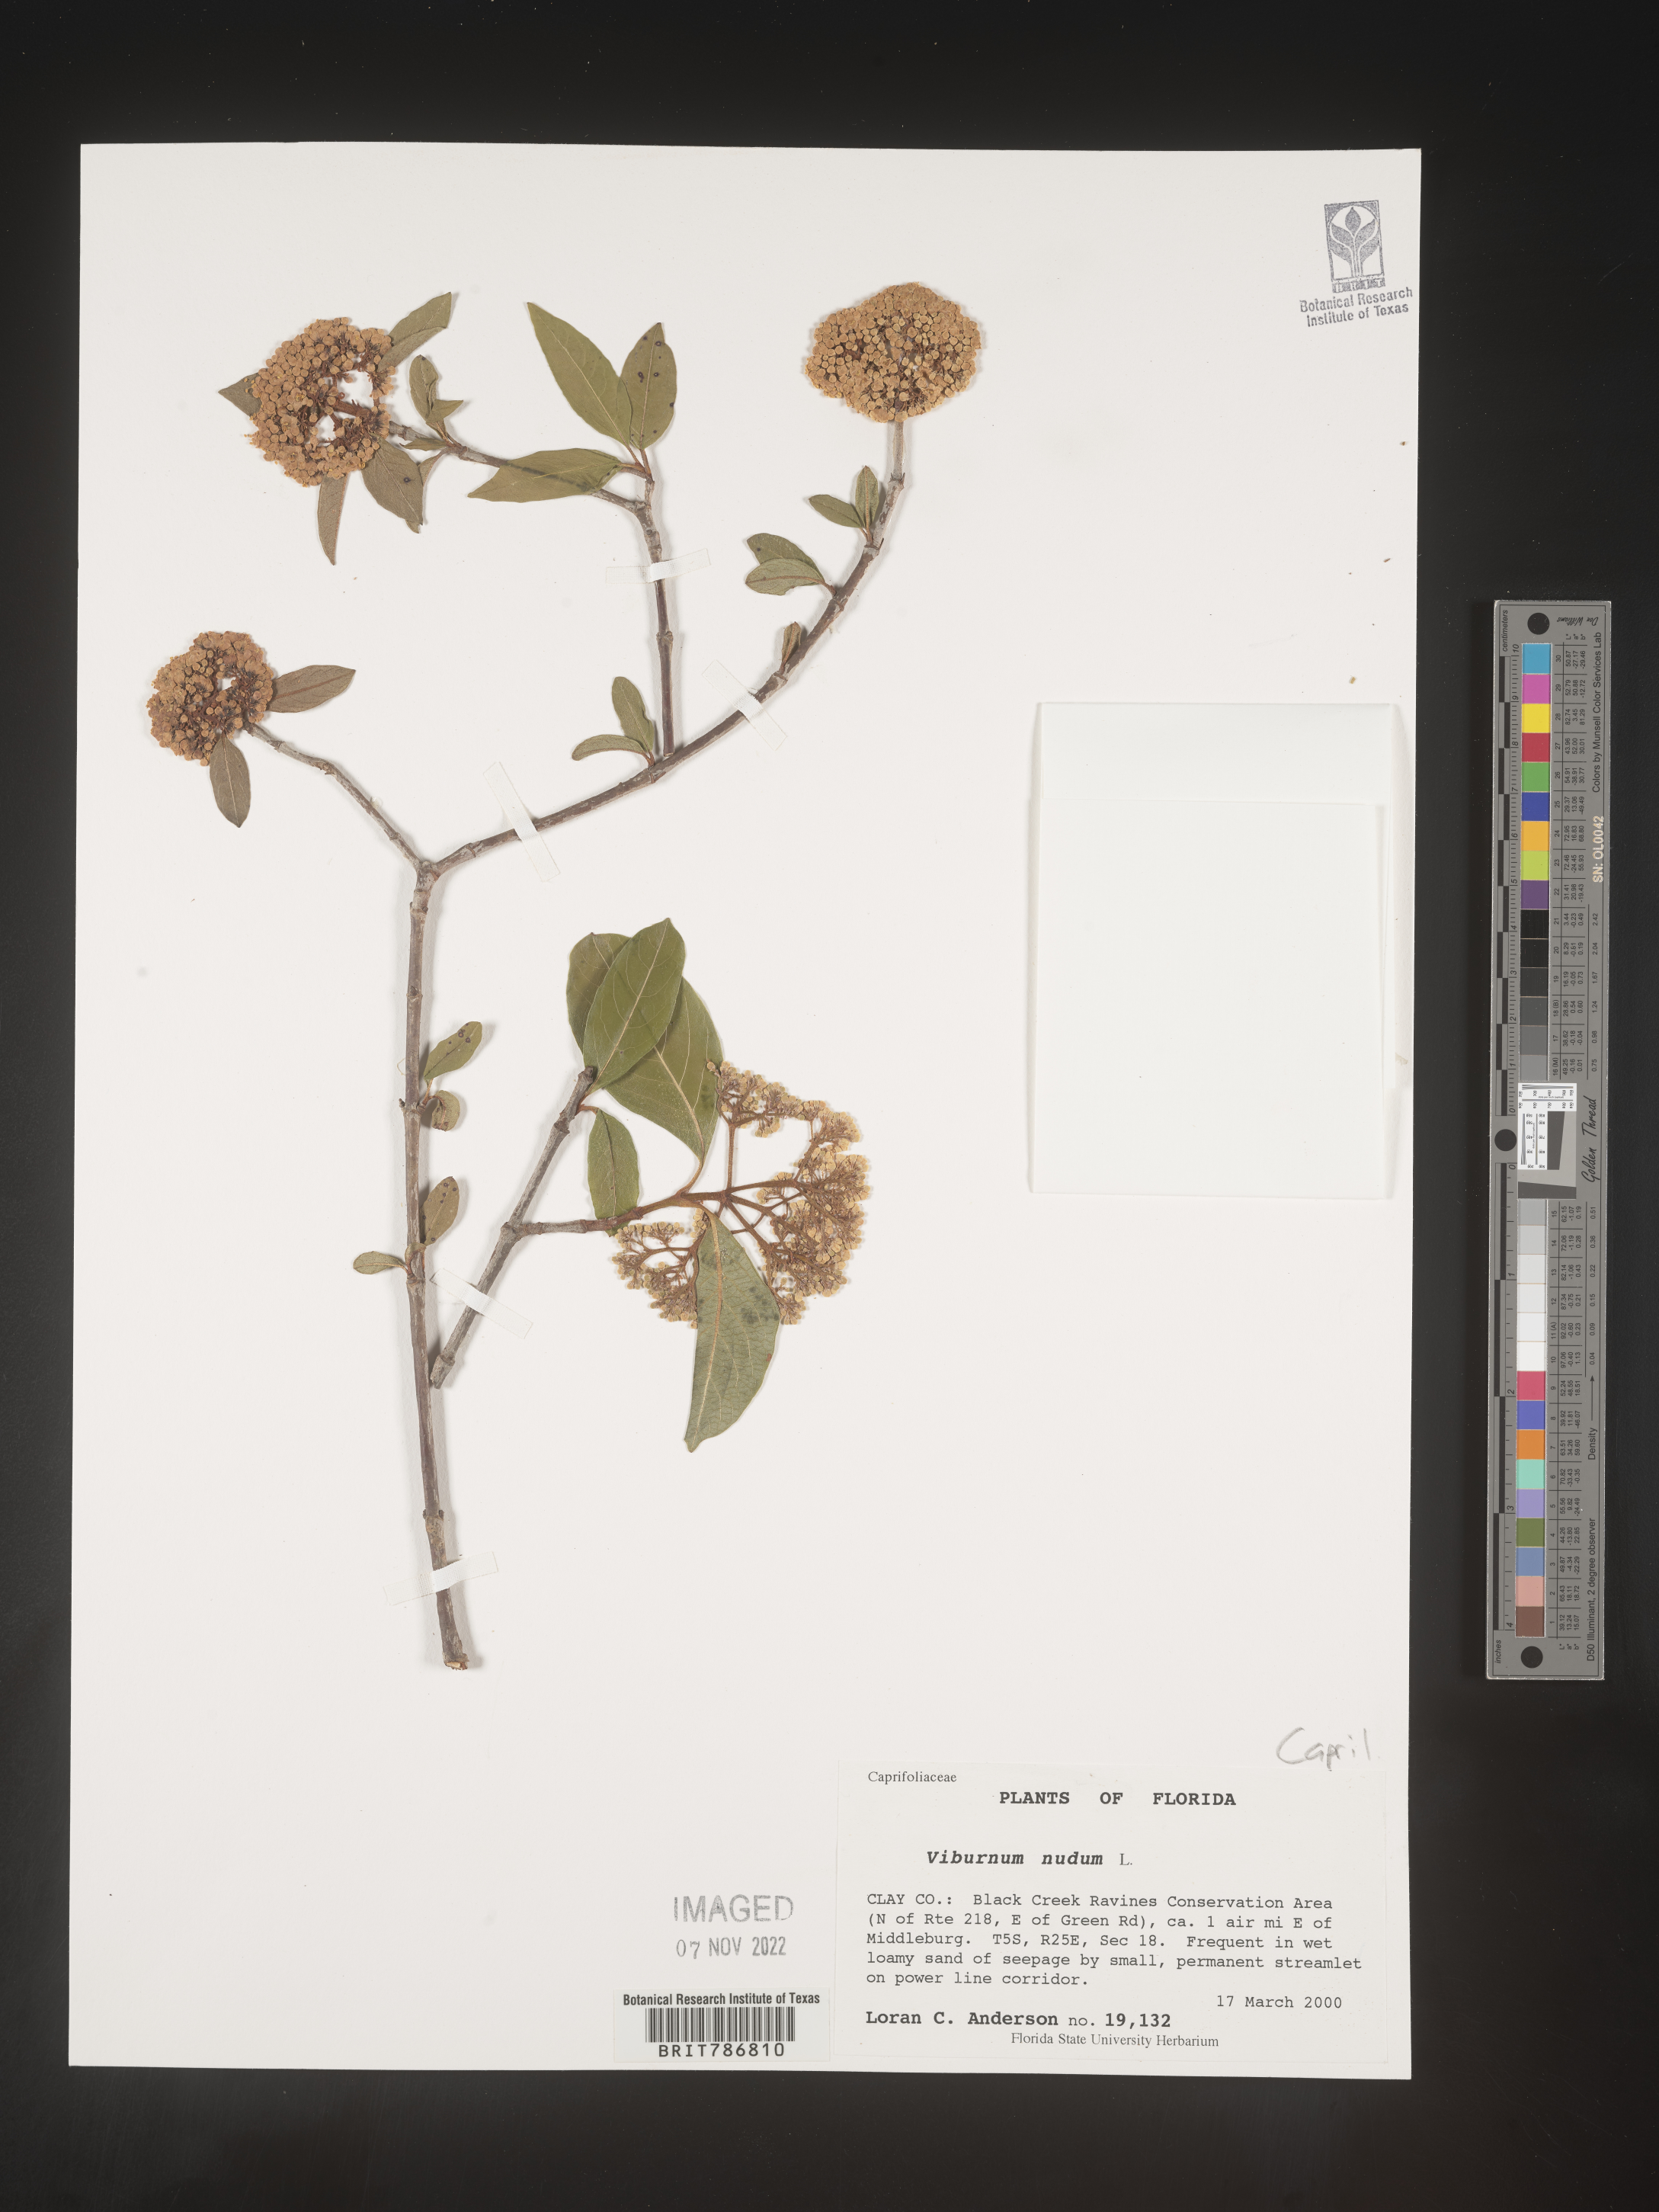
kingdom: Plantae
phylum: Tracheophyta
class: Magnoliopsida
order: Dipsacales
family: Viburnaceae
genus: Viburnum
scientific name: Viburnum nudum
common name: Possum haw
